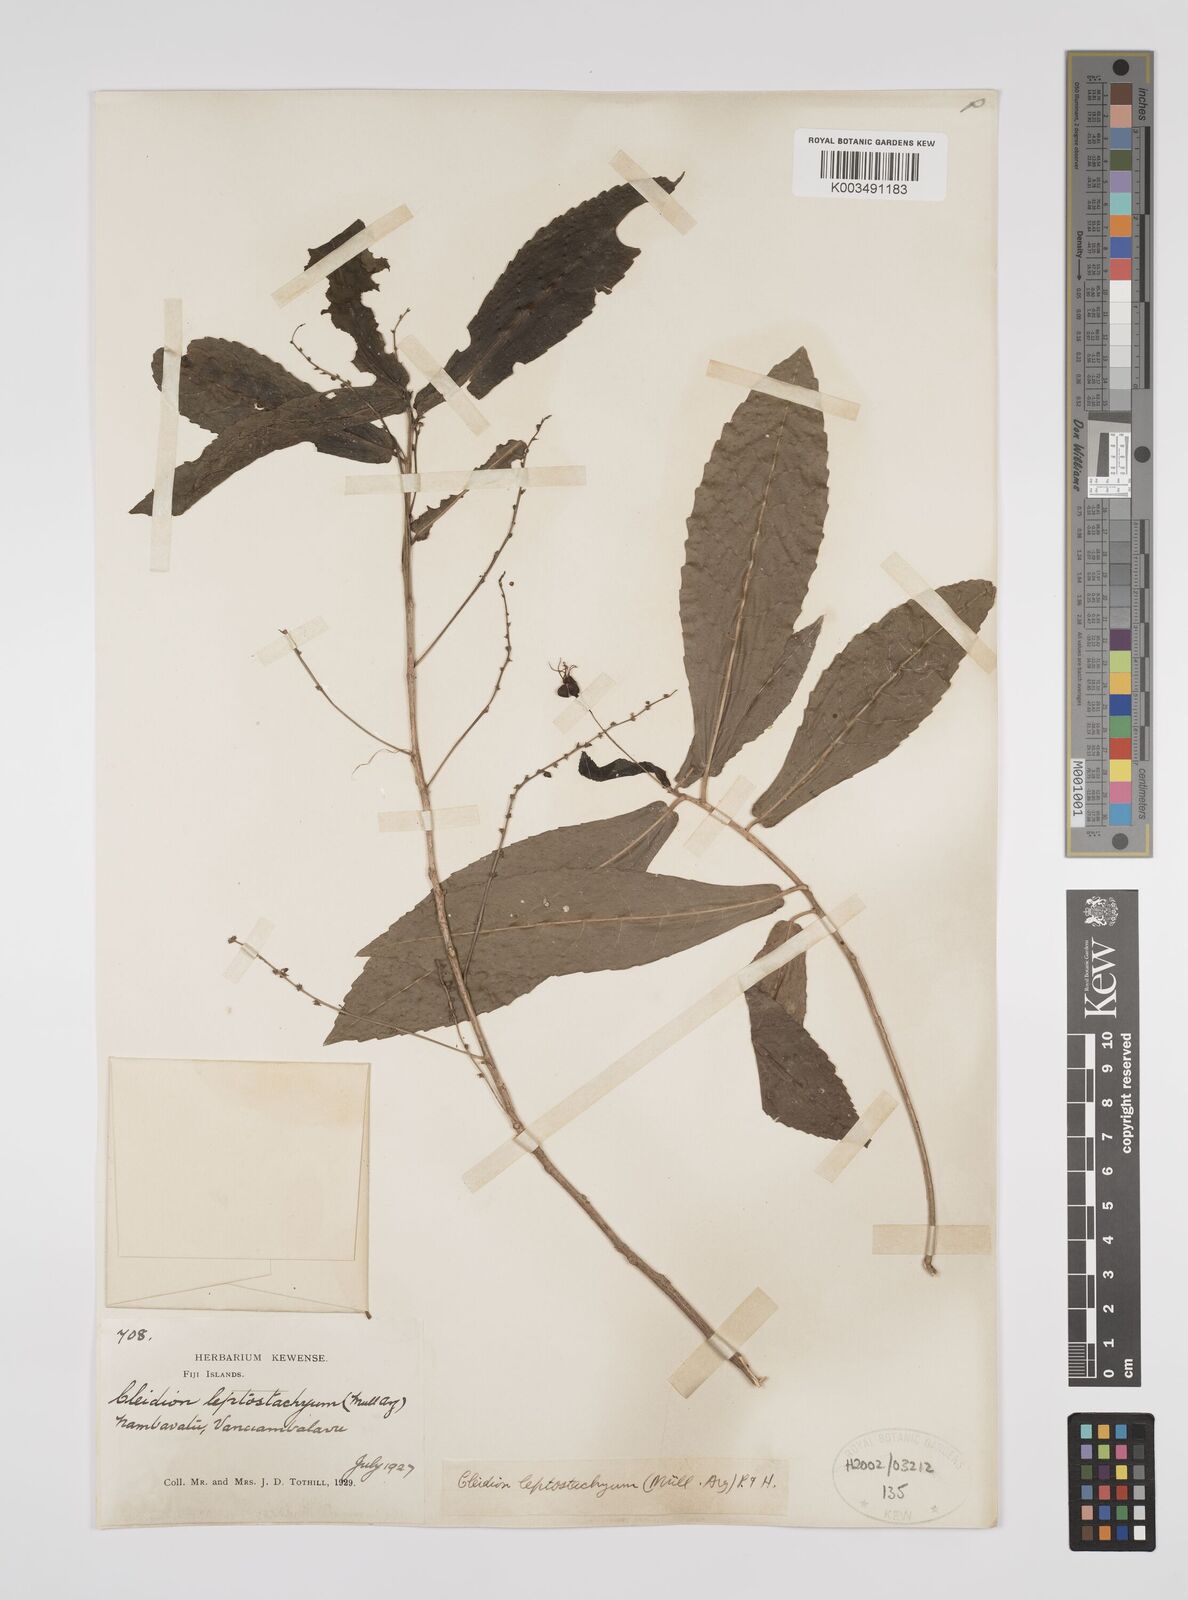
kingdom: Plantae
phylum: Tracheophyta
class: Magnoliopsida
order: Malpighiales
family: Euphorbiaceae
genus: Cleidion
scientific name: Cleidion leptostachyum
